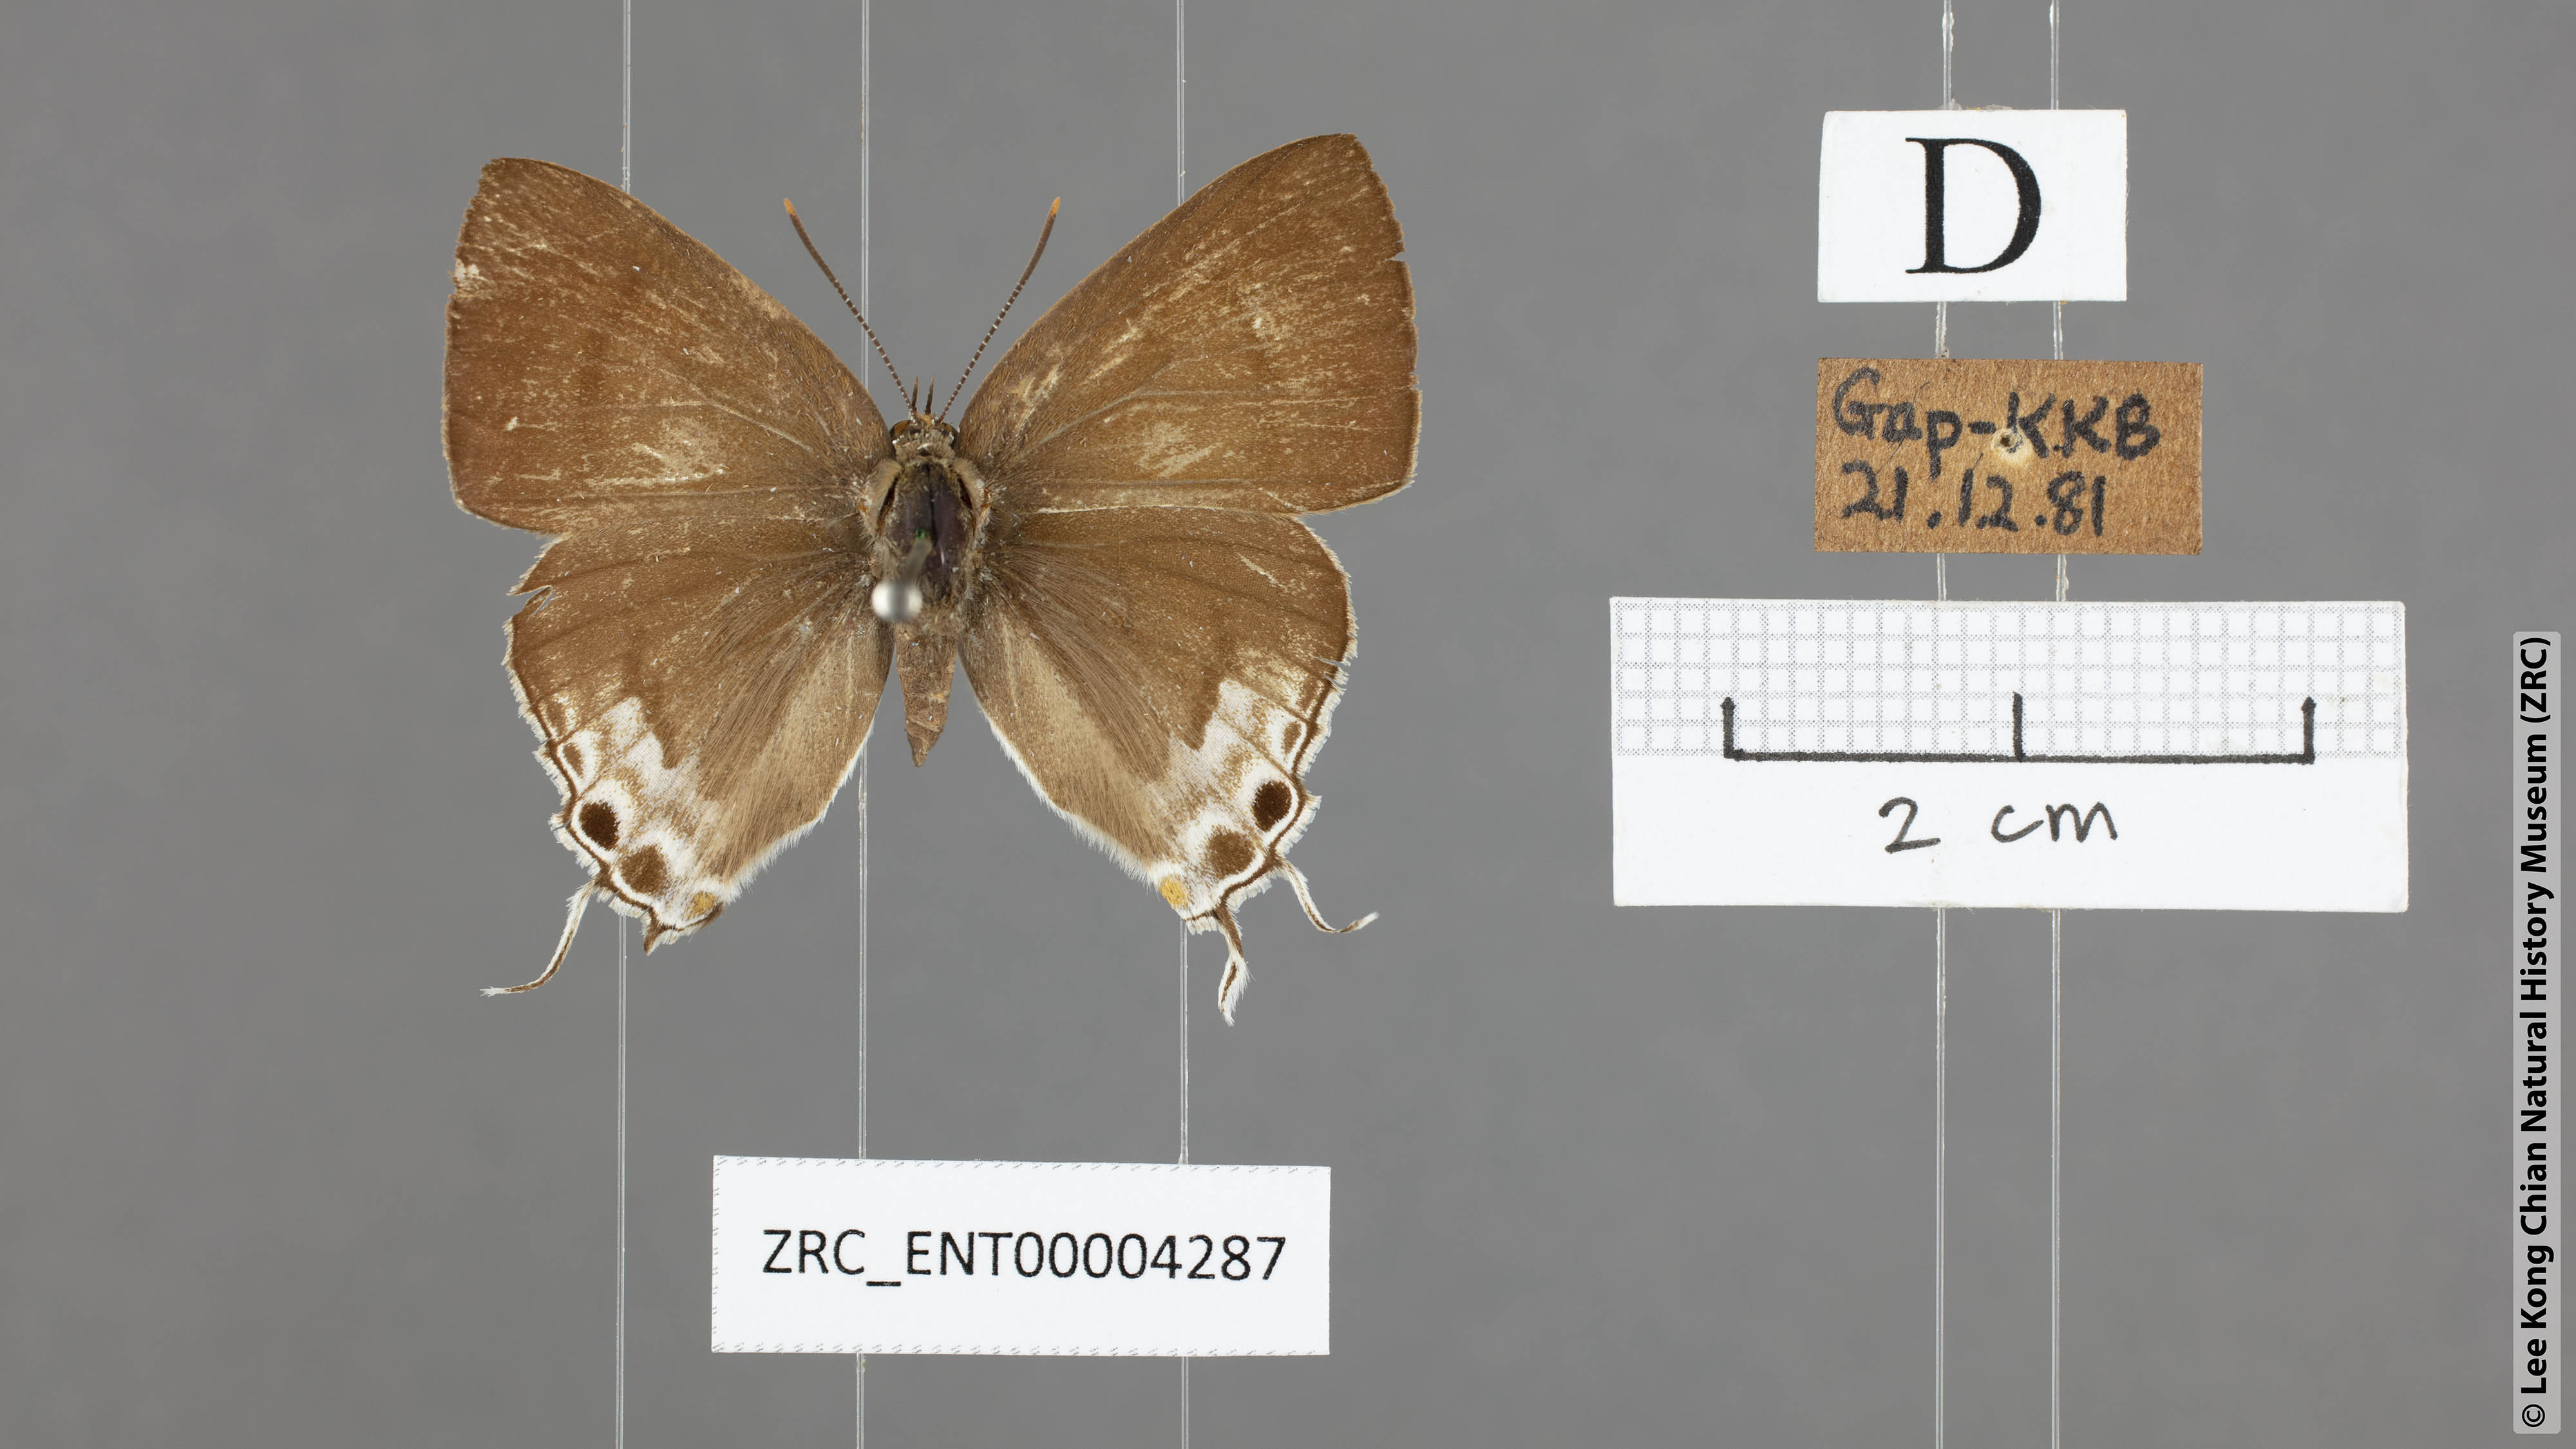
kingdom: Animalia
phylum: Arthropoda
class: Insecta
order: Lepidoptera
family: Lycaenidae
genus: Hypolycaena
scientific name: Hypolycaena erylus
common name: Common tit
